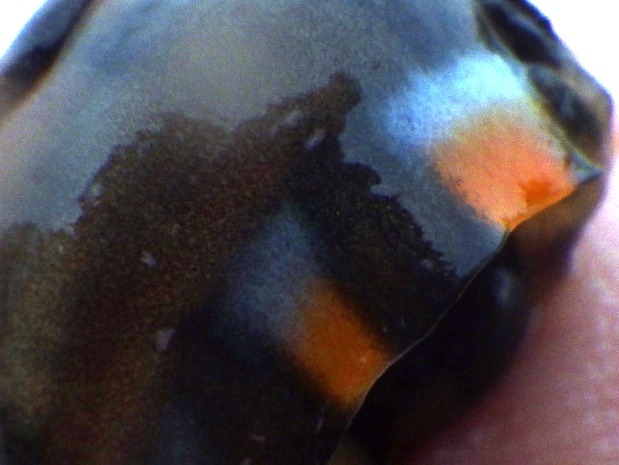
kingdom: Animalia
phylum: Chordata
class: Amphibia
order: Caudata
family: Salamandridae
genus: Lissotriton
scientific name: Lissotriton vulgaris
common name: Lille vandsalamander
